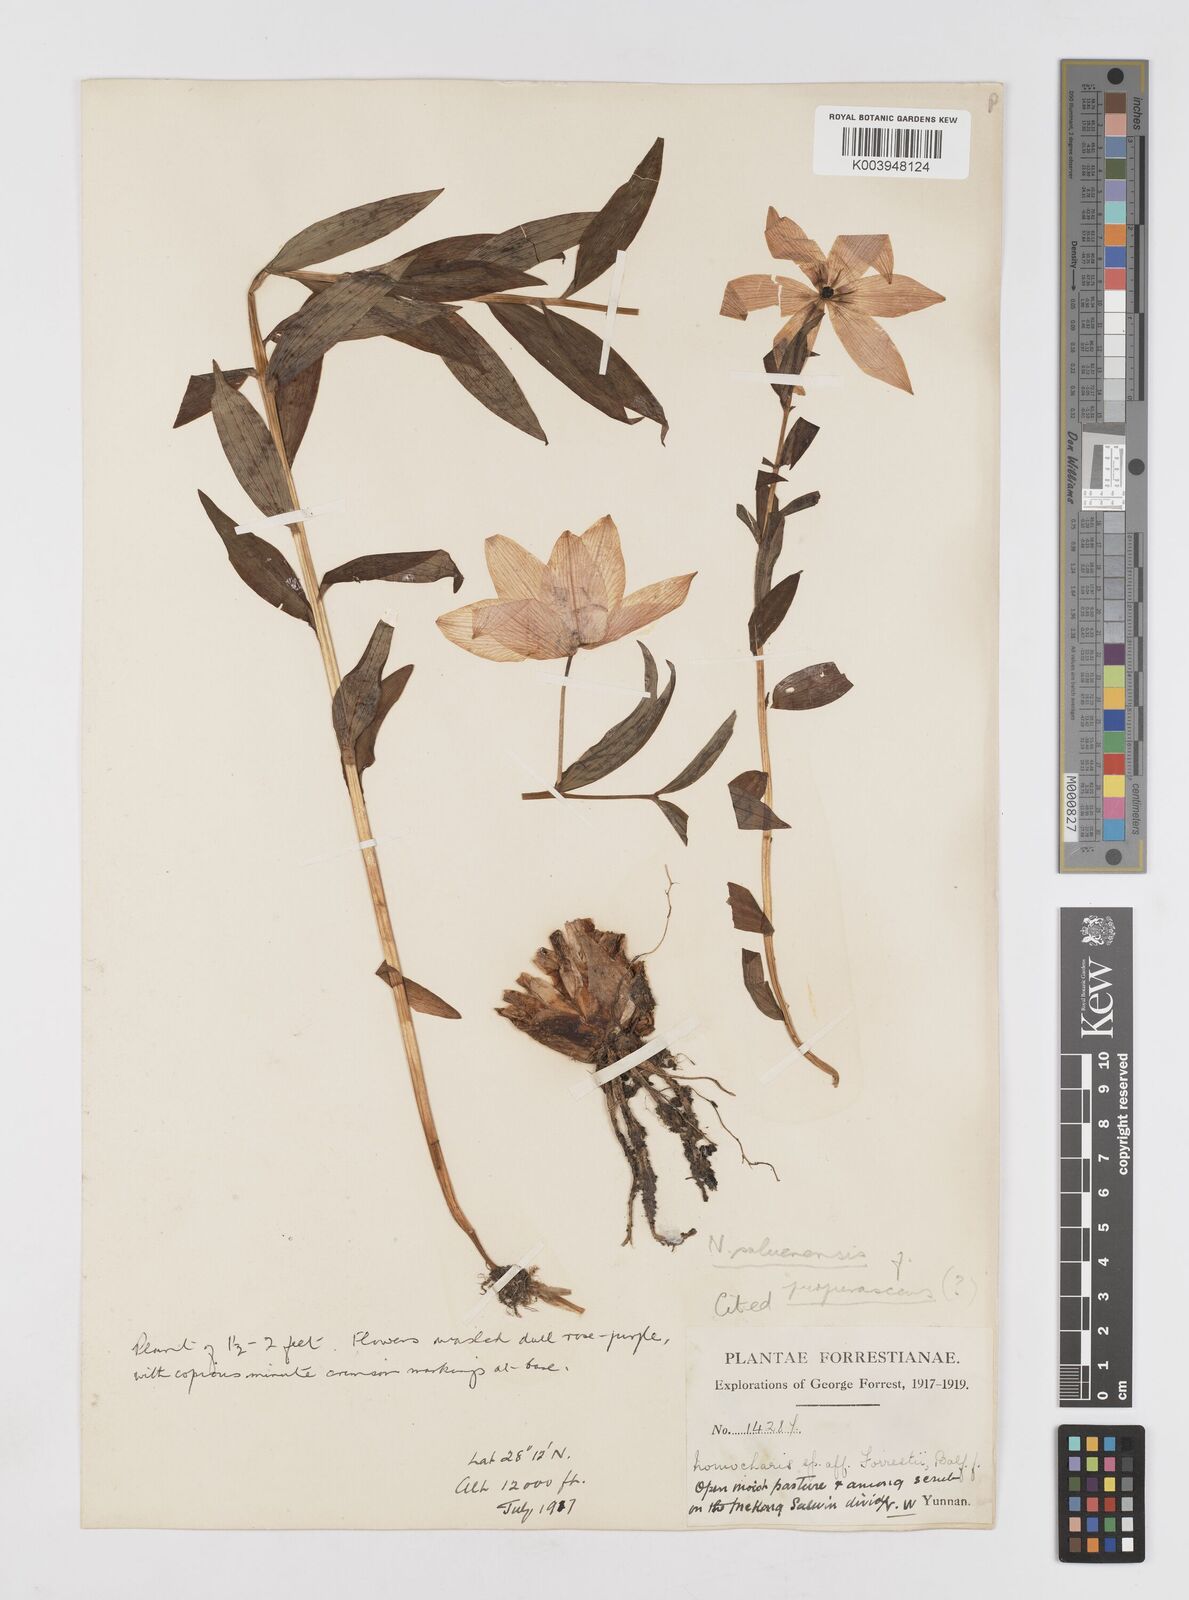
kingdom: Plantae
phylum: Tracheophyta
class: Liliopsida
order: Liliales
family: Liliaceae
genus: Lilium
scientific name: Lilium saluenense
